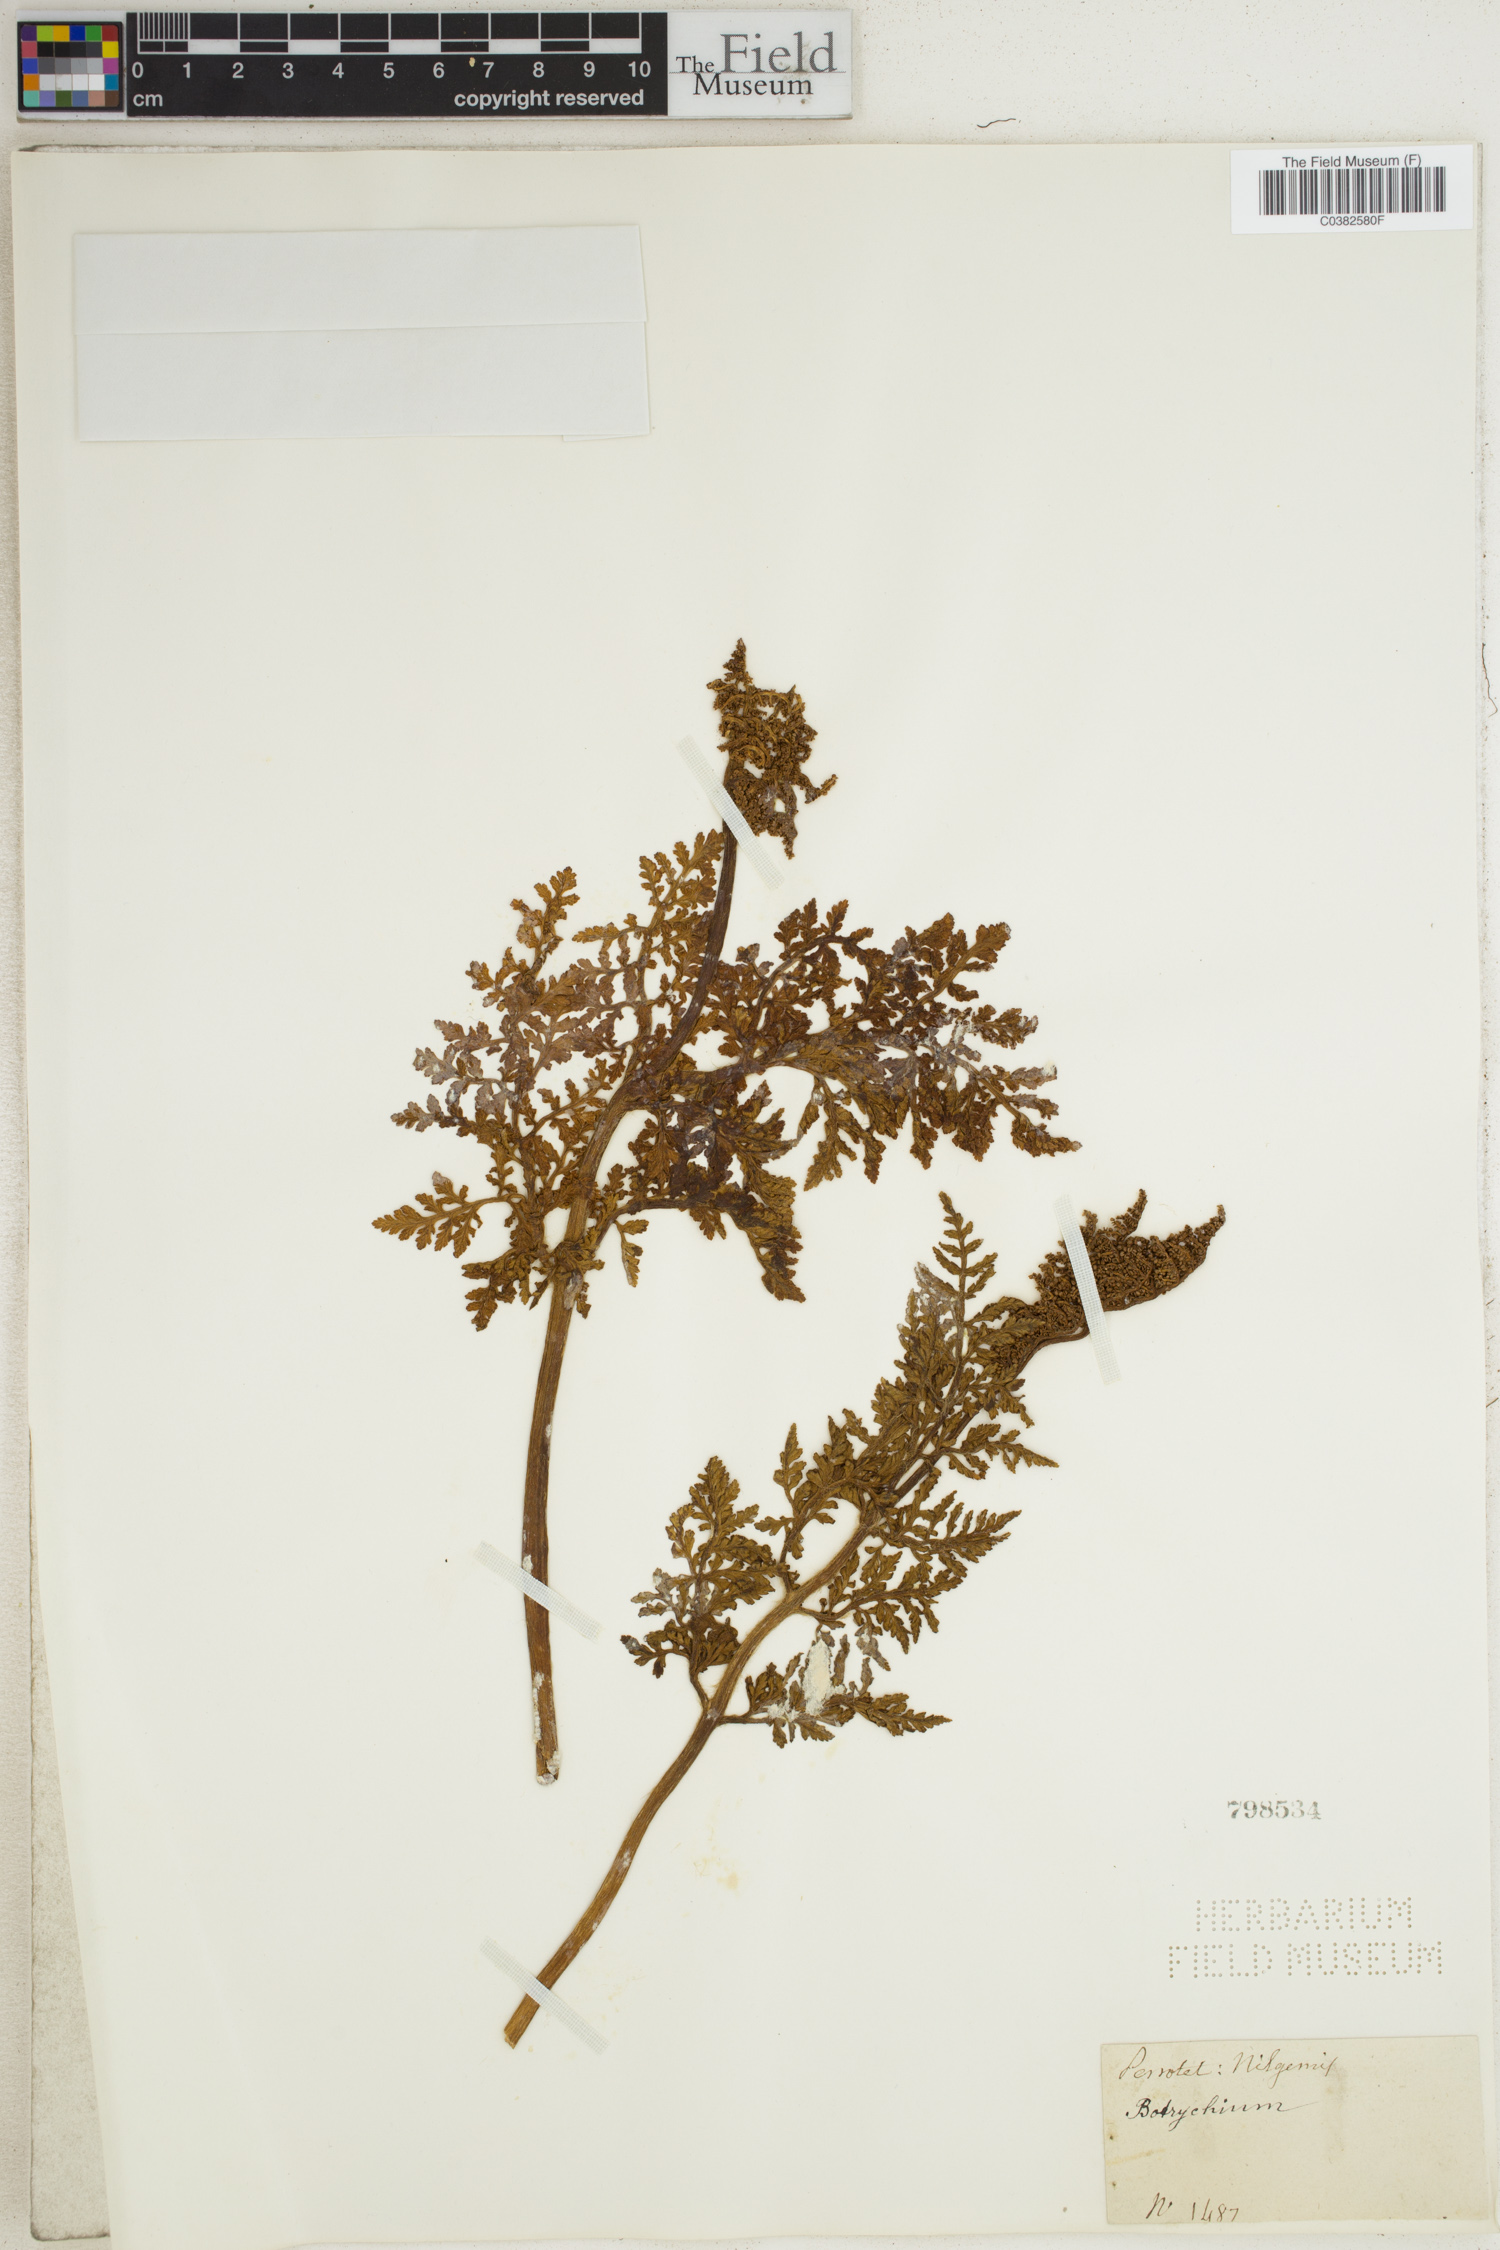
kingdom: Plantae
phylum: Tracheophyta
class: Polypodiopsida
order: Ophioglossales
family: Ophioglossaceae
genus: Botrychium
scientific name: Botrychium
